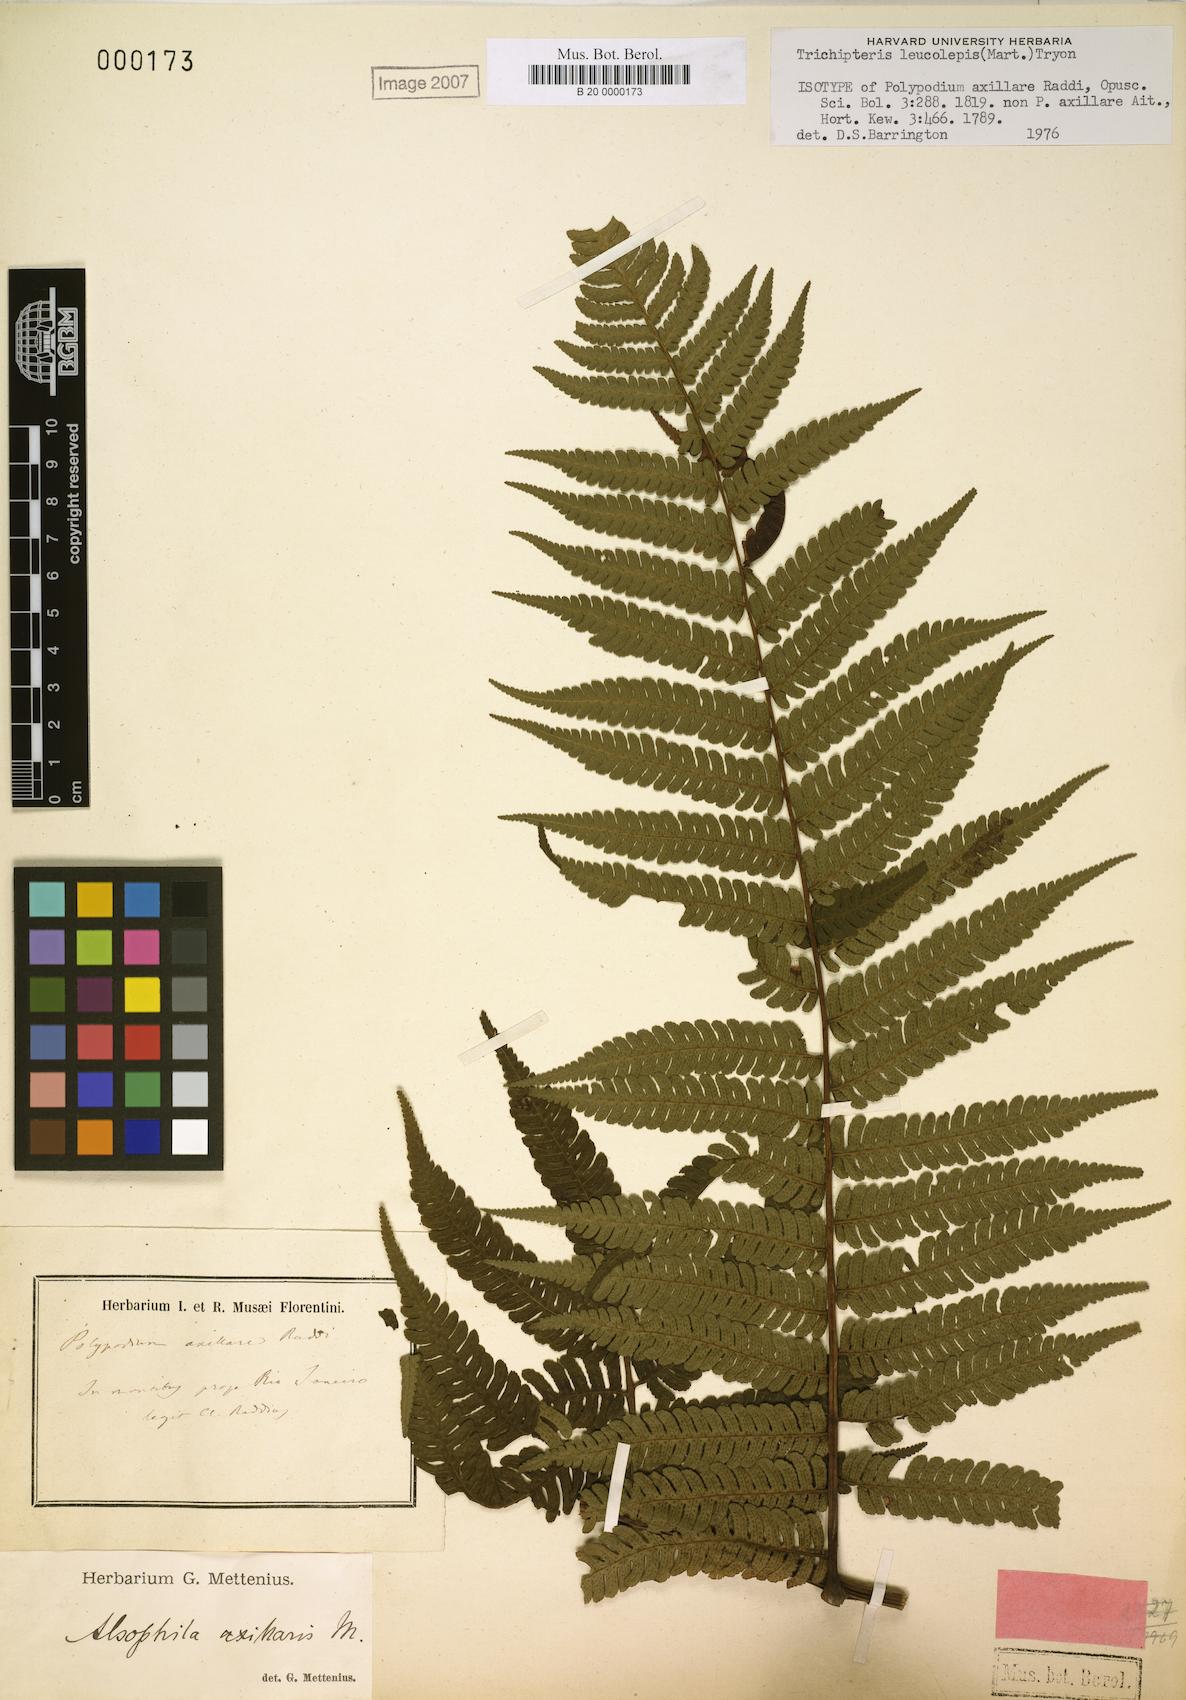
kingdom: Plantae
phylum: Tracheophyta
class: Polypodiopsida
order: Cyatheales
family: Cyatheaceae
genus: Cyathea
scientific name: Cyathea axillaris
